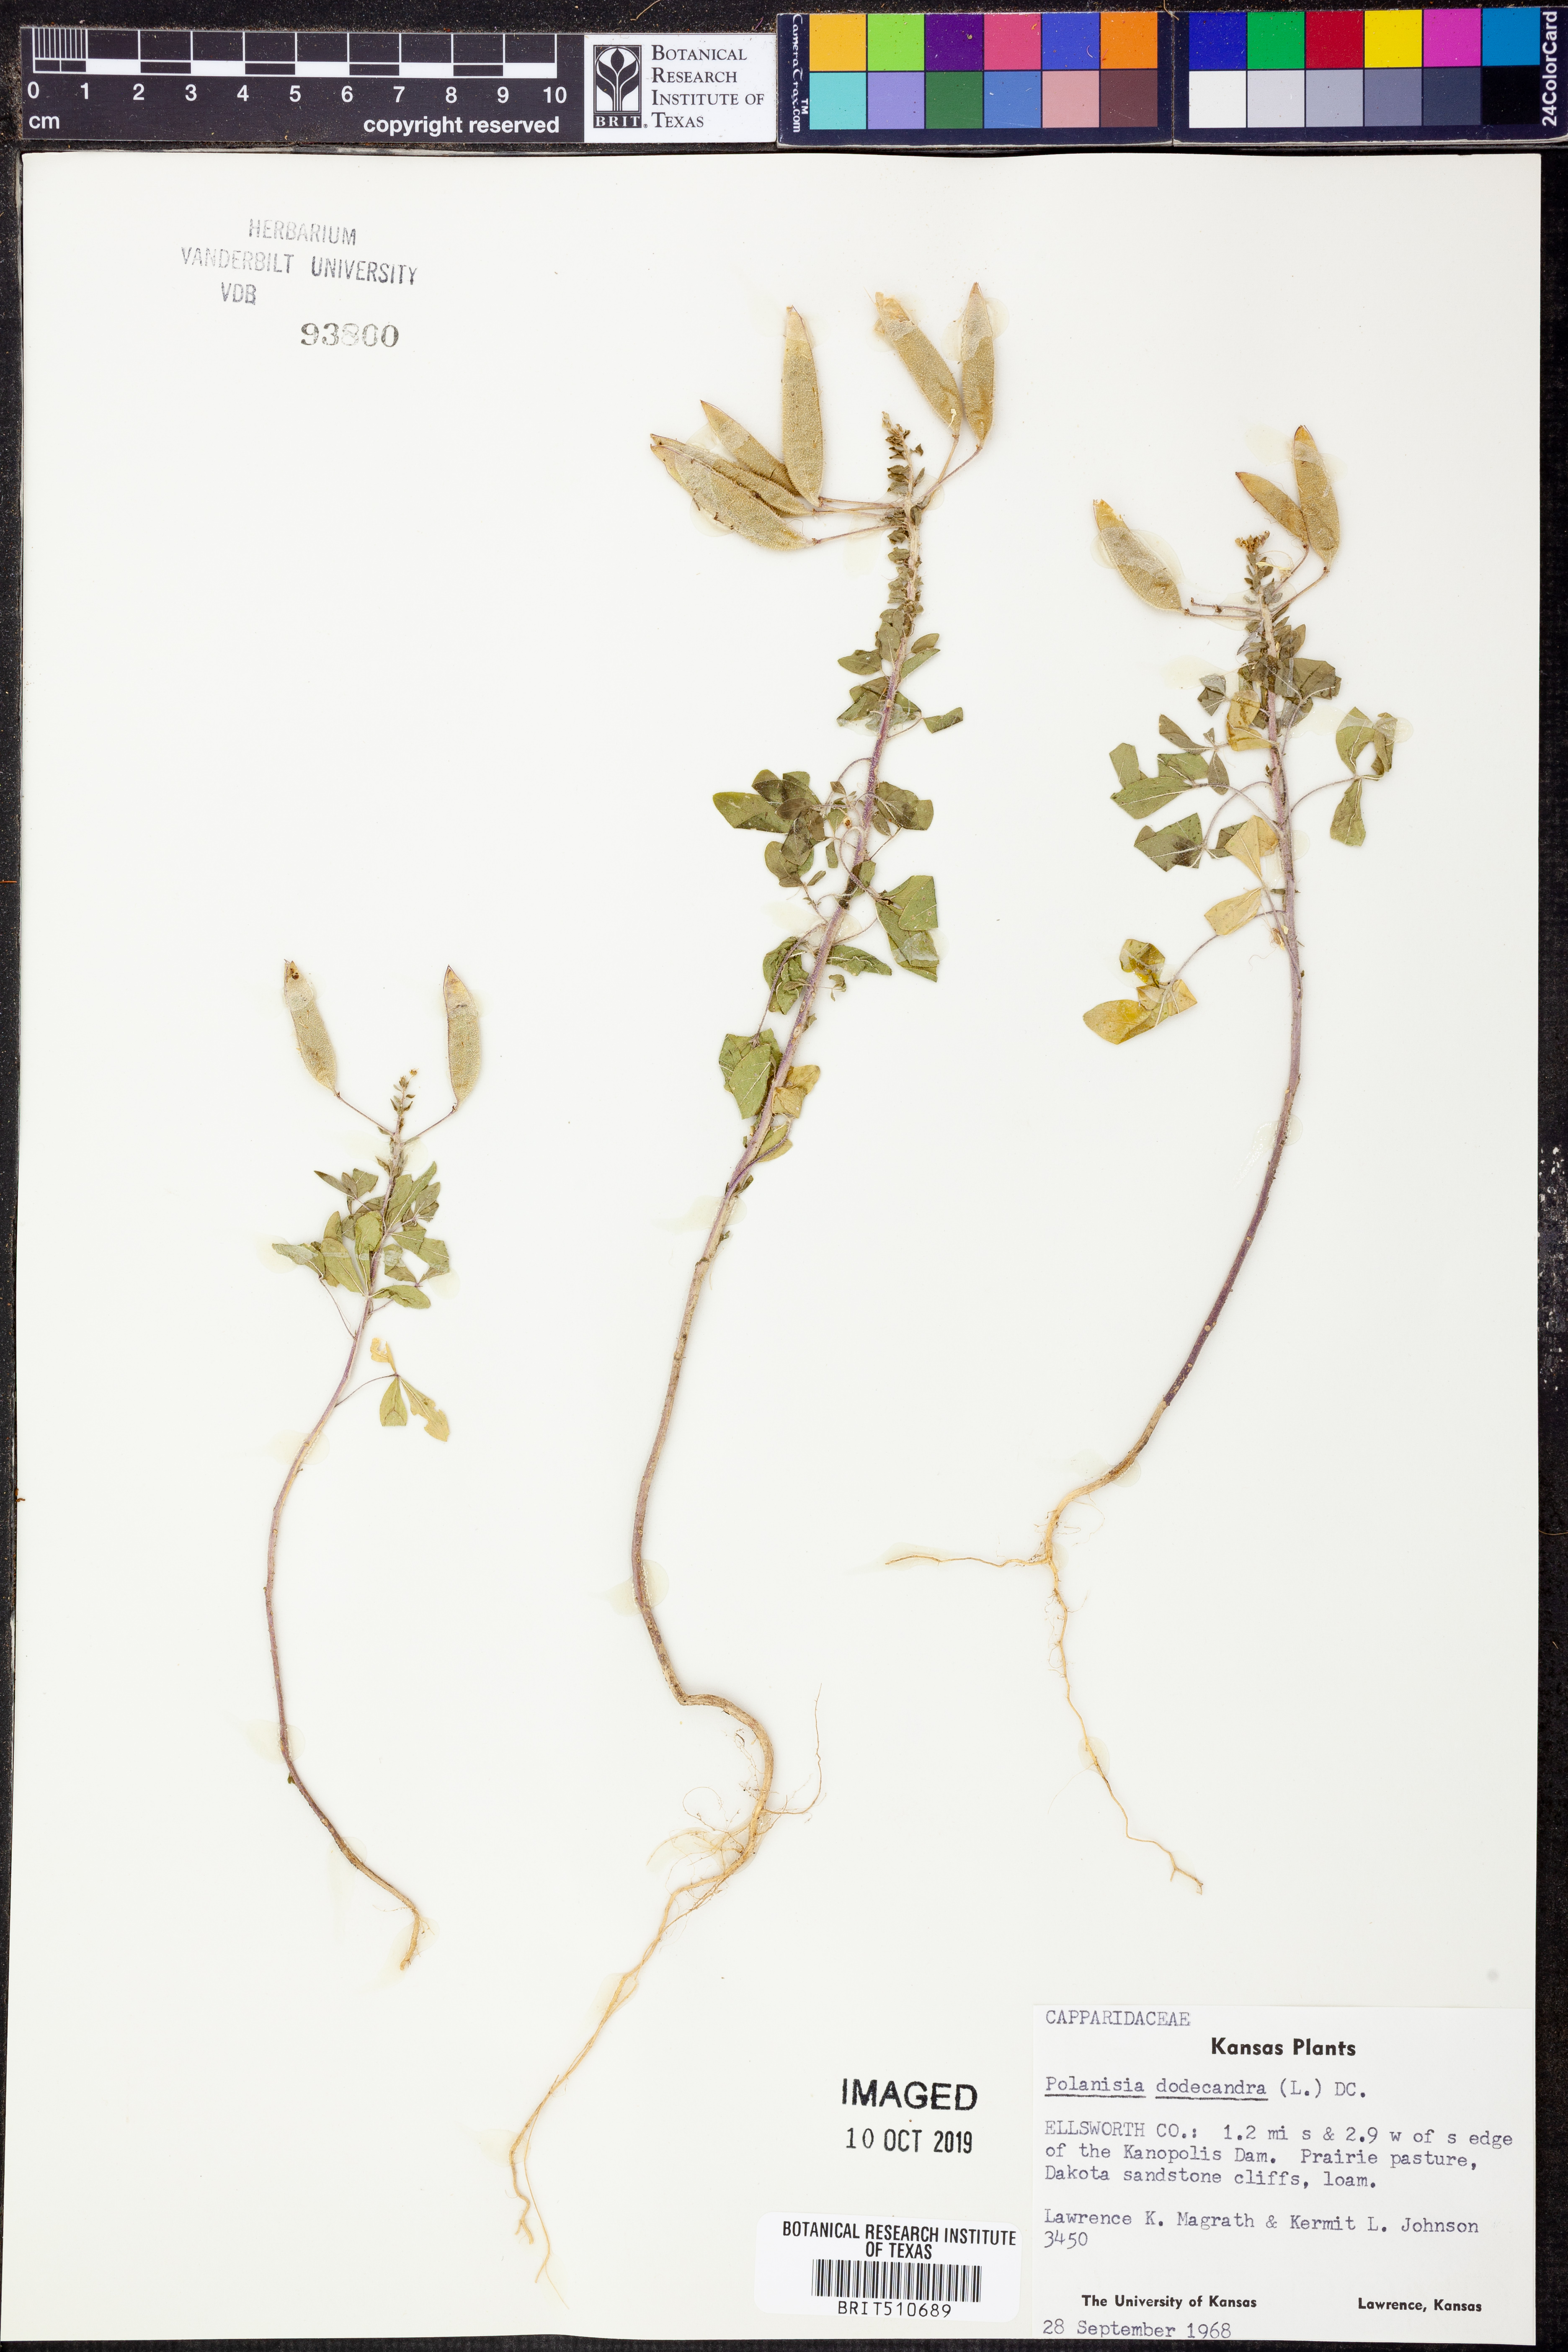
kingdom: Plantae
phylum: Tracheophyta
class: Magnoliopsida
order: Brassicales
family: Cleomaceae
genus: Polanisia
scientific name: Polanisia dodecandra
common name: Clammyweed
